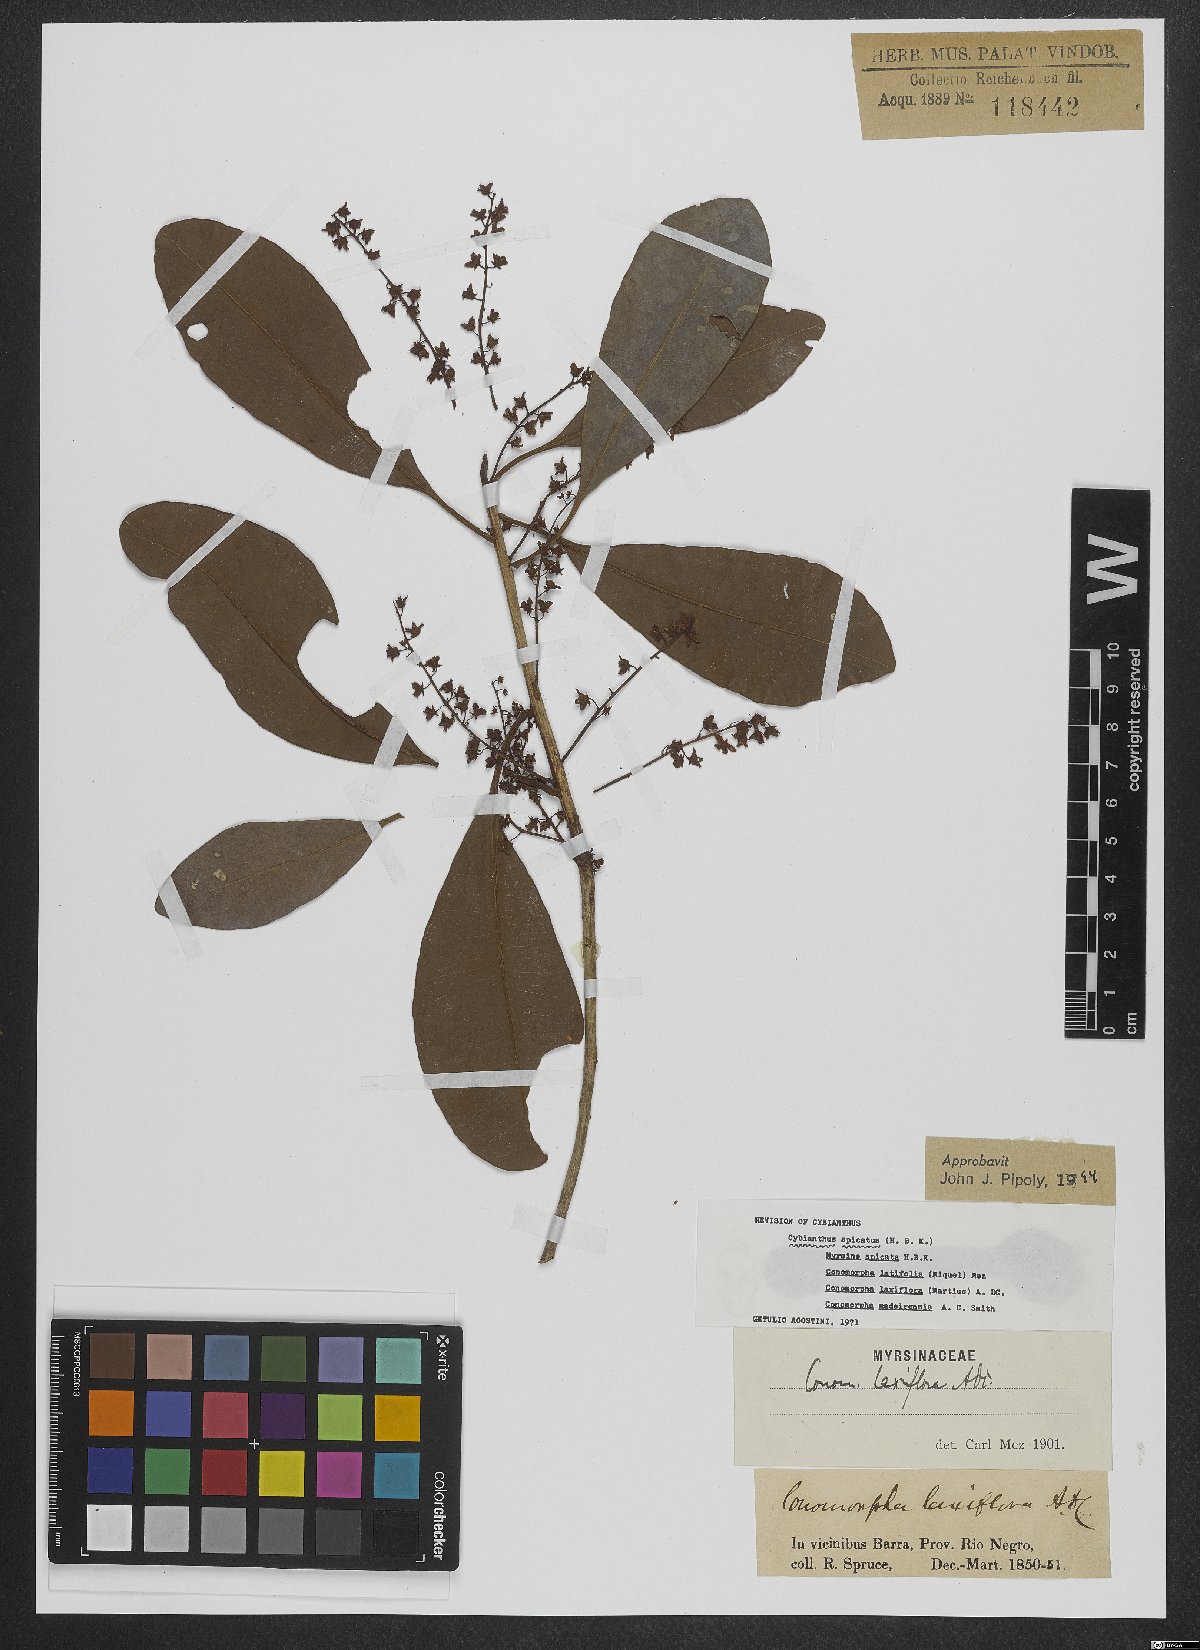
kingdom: Plantae
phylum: Tracheophyta
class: Magnoliopsida
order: Ericales
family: Primulaceae
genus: Cybianthus
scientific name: Cybianthus spicatus
